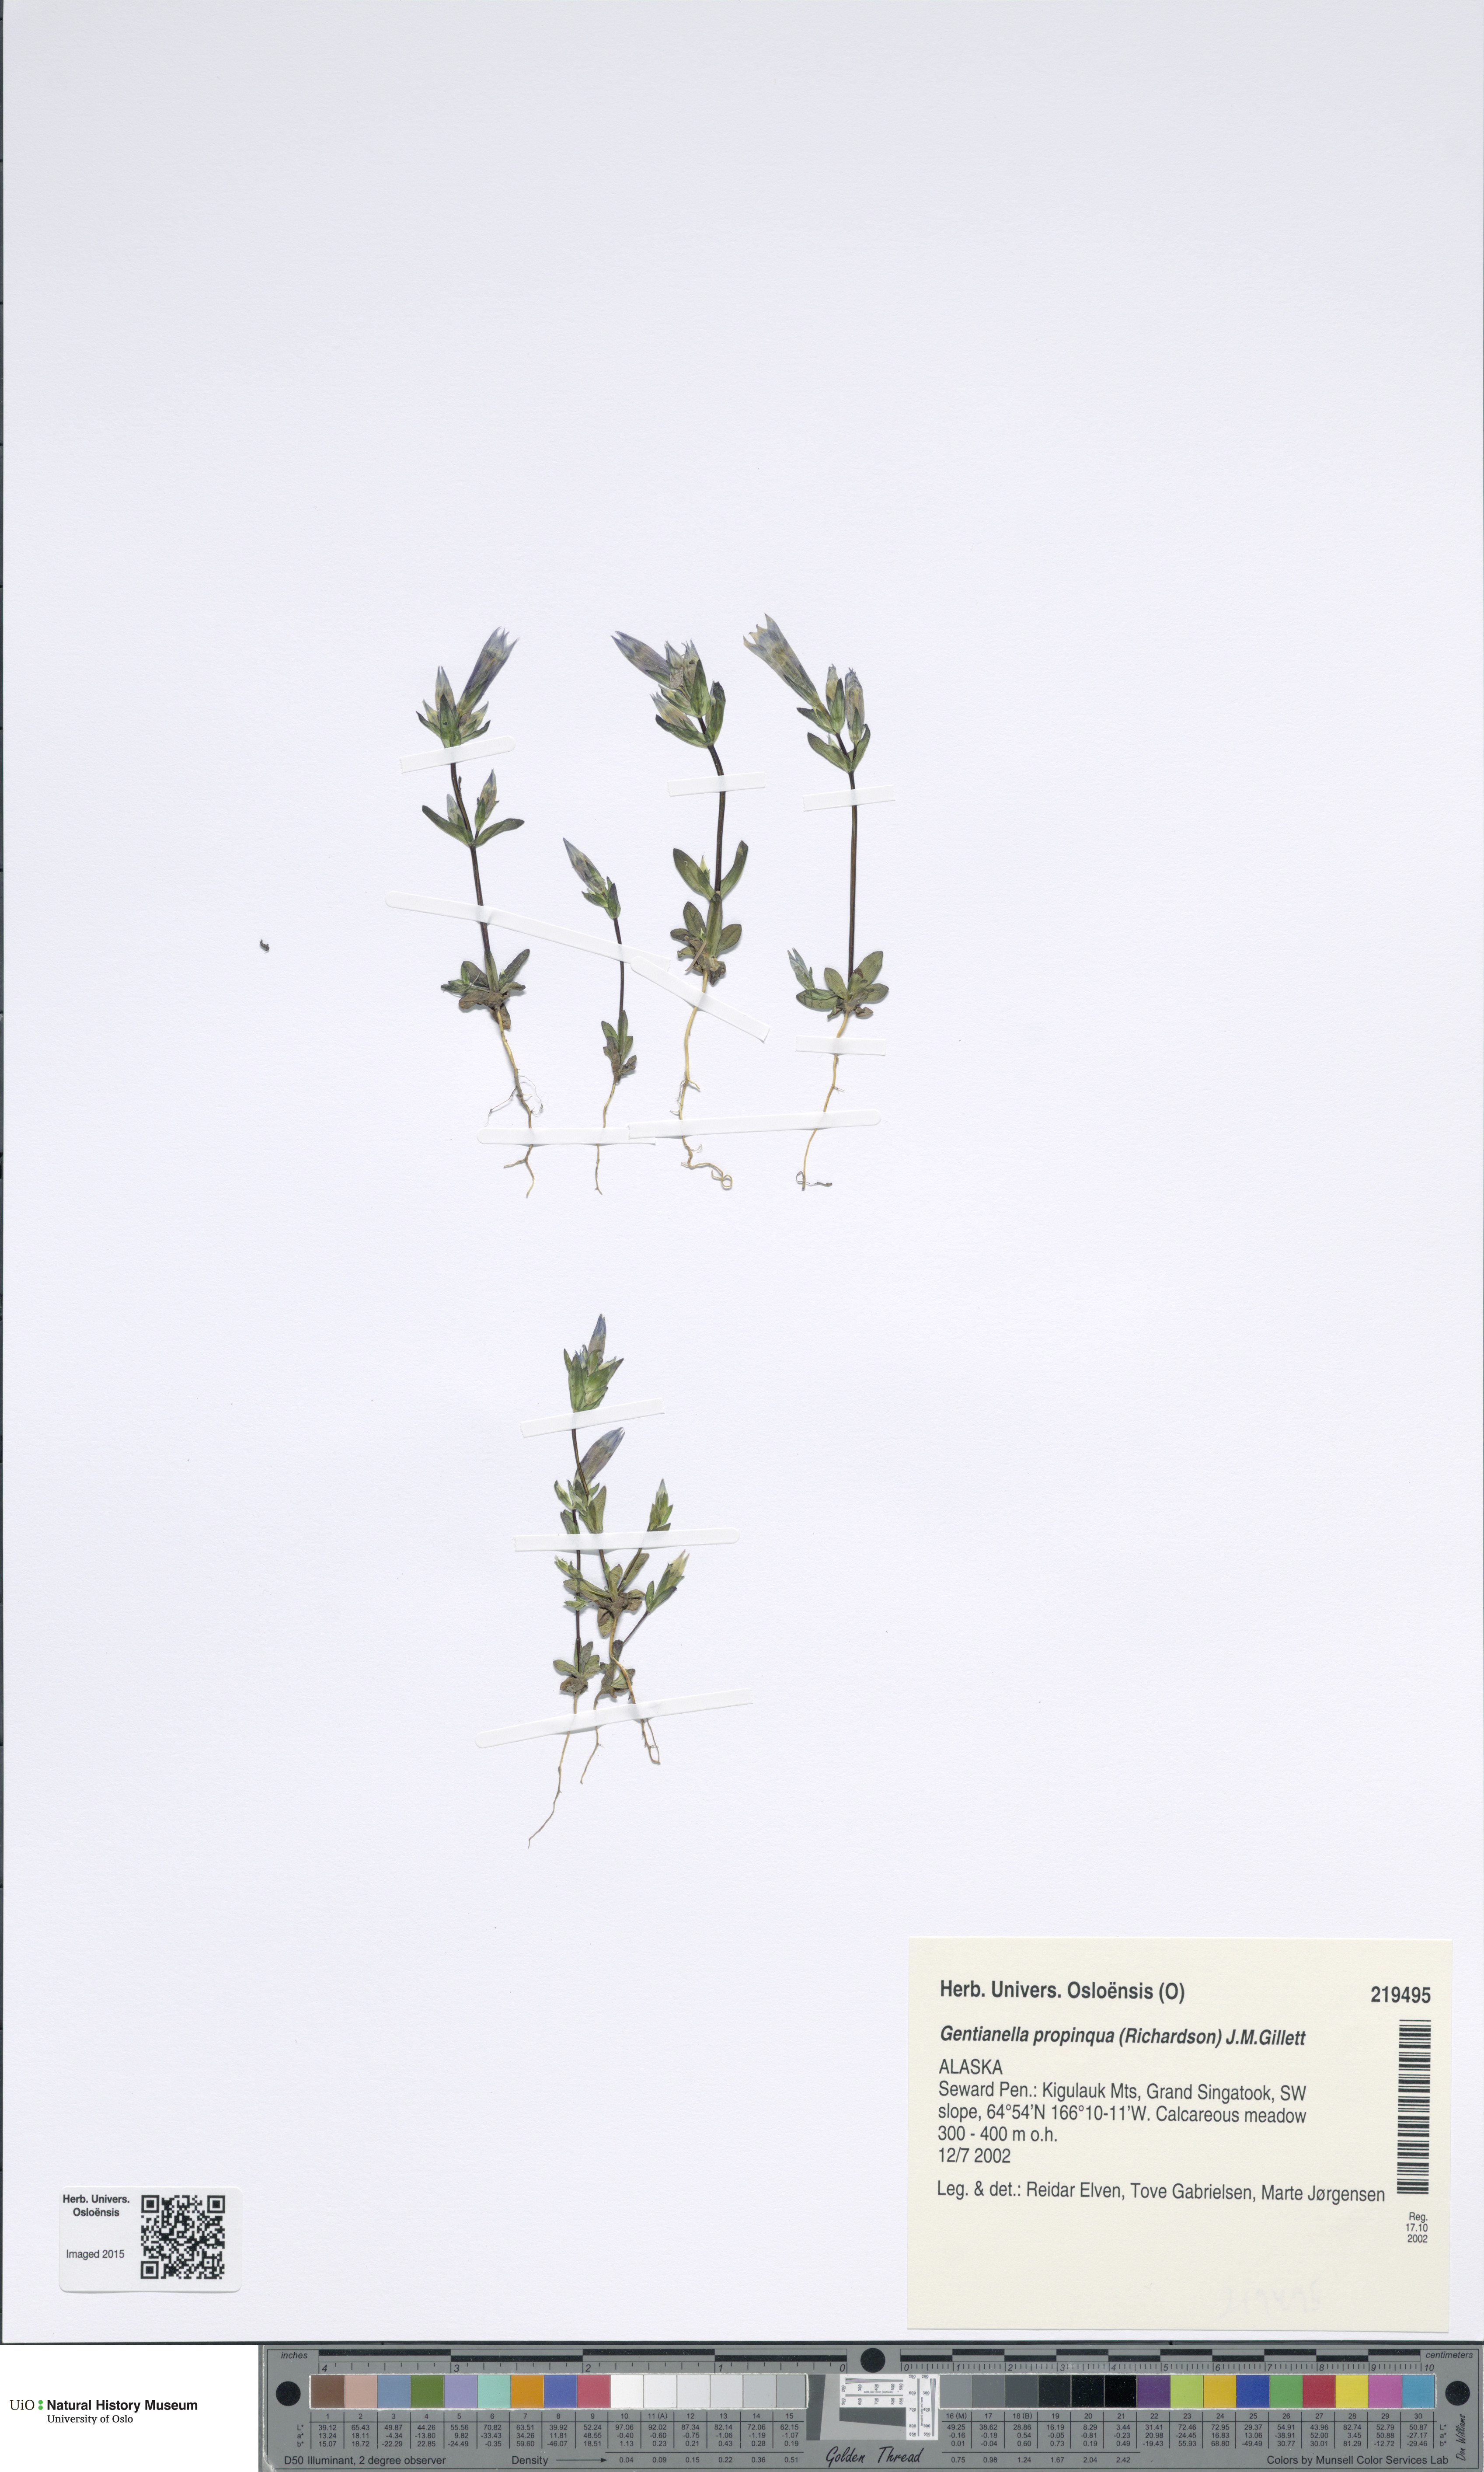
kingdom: Plantae
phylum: Tracheophyta
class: Magnoliopsida
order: Gentianales
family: Gentianaceae
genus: Gentianella
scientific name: Gentianella propinqua
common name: Four-parted dwarf-gentian
